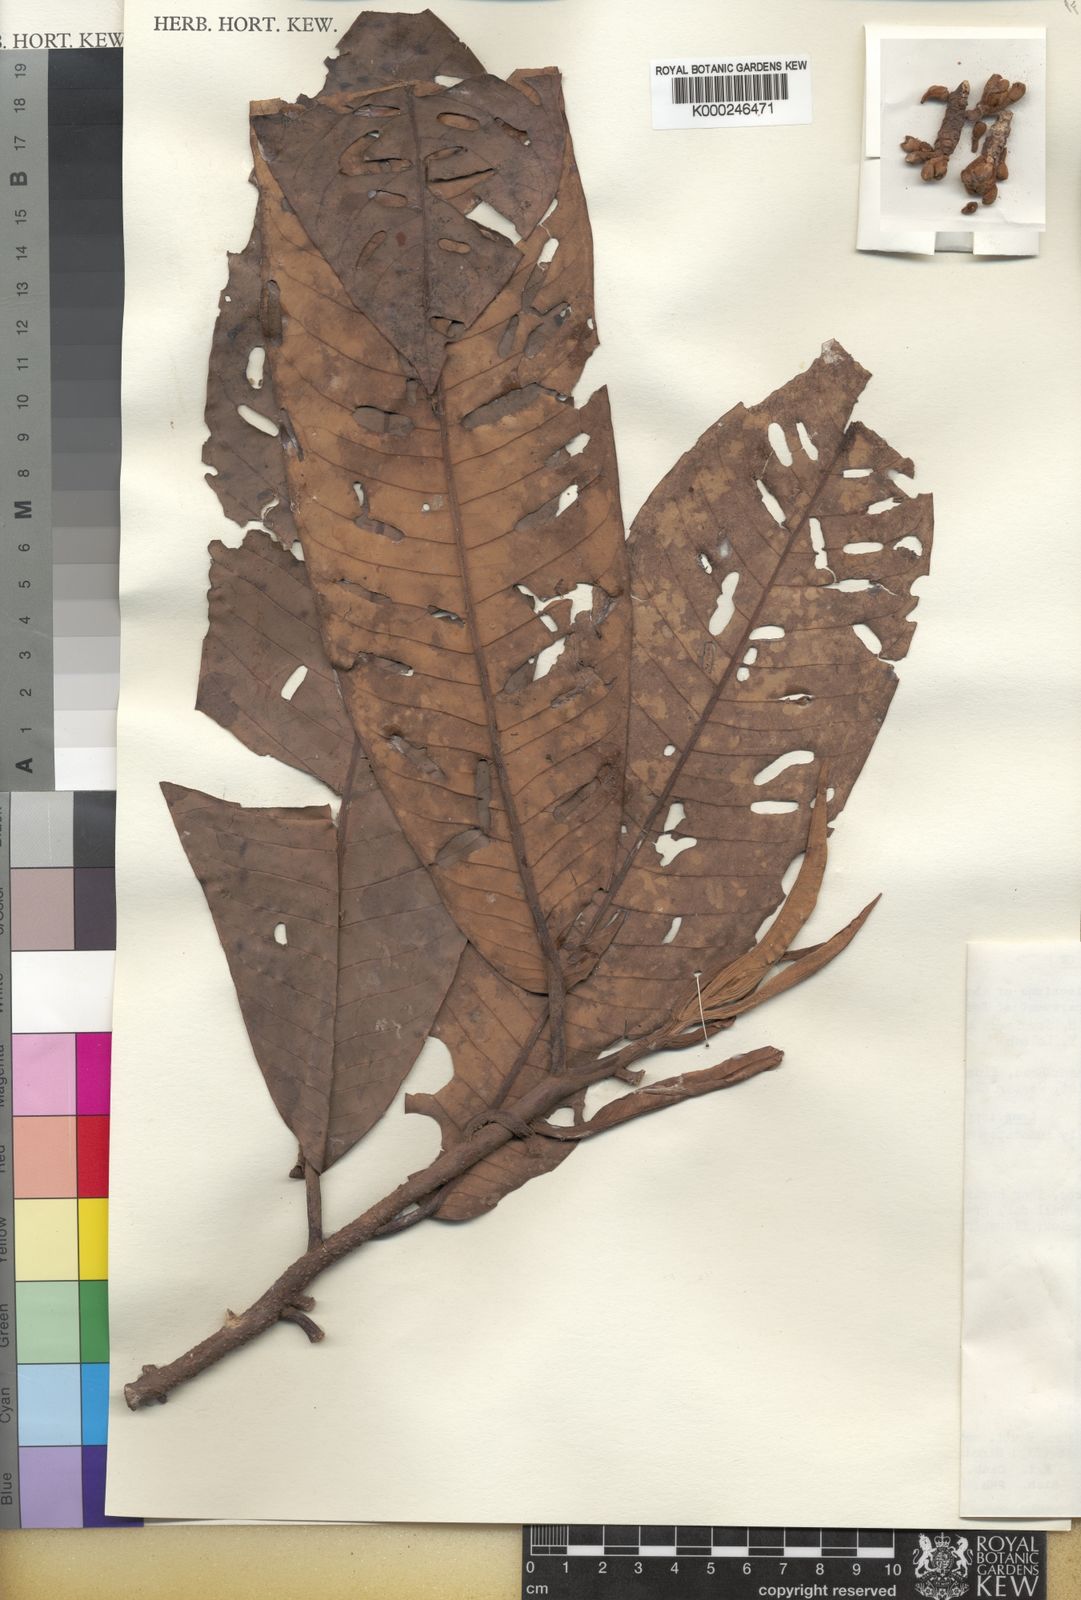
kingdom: Plantae
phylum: Tracheophyta
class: Magnoliopsida
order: Magnoliales
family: Myristicaceae
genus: Myristica
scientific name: Myristica fatua
